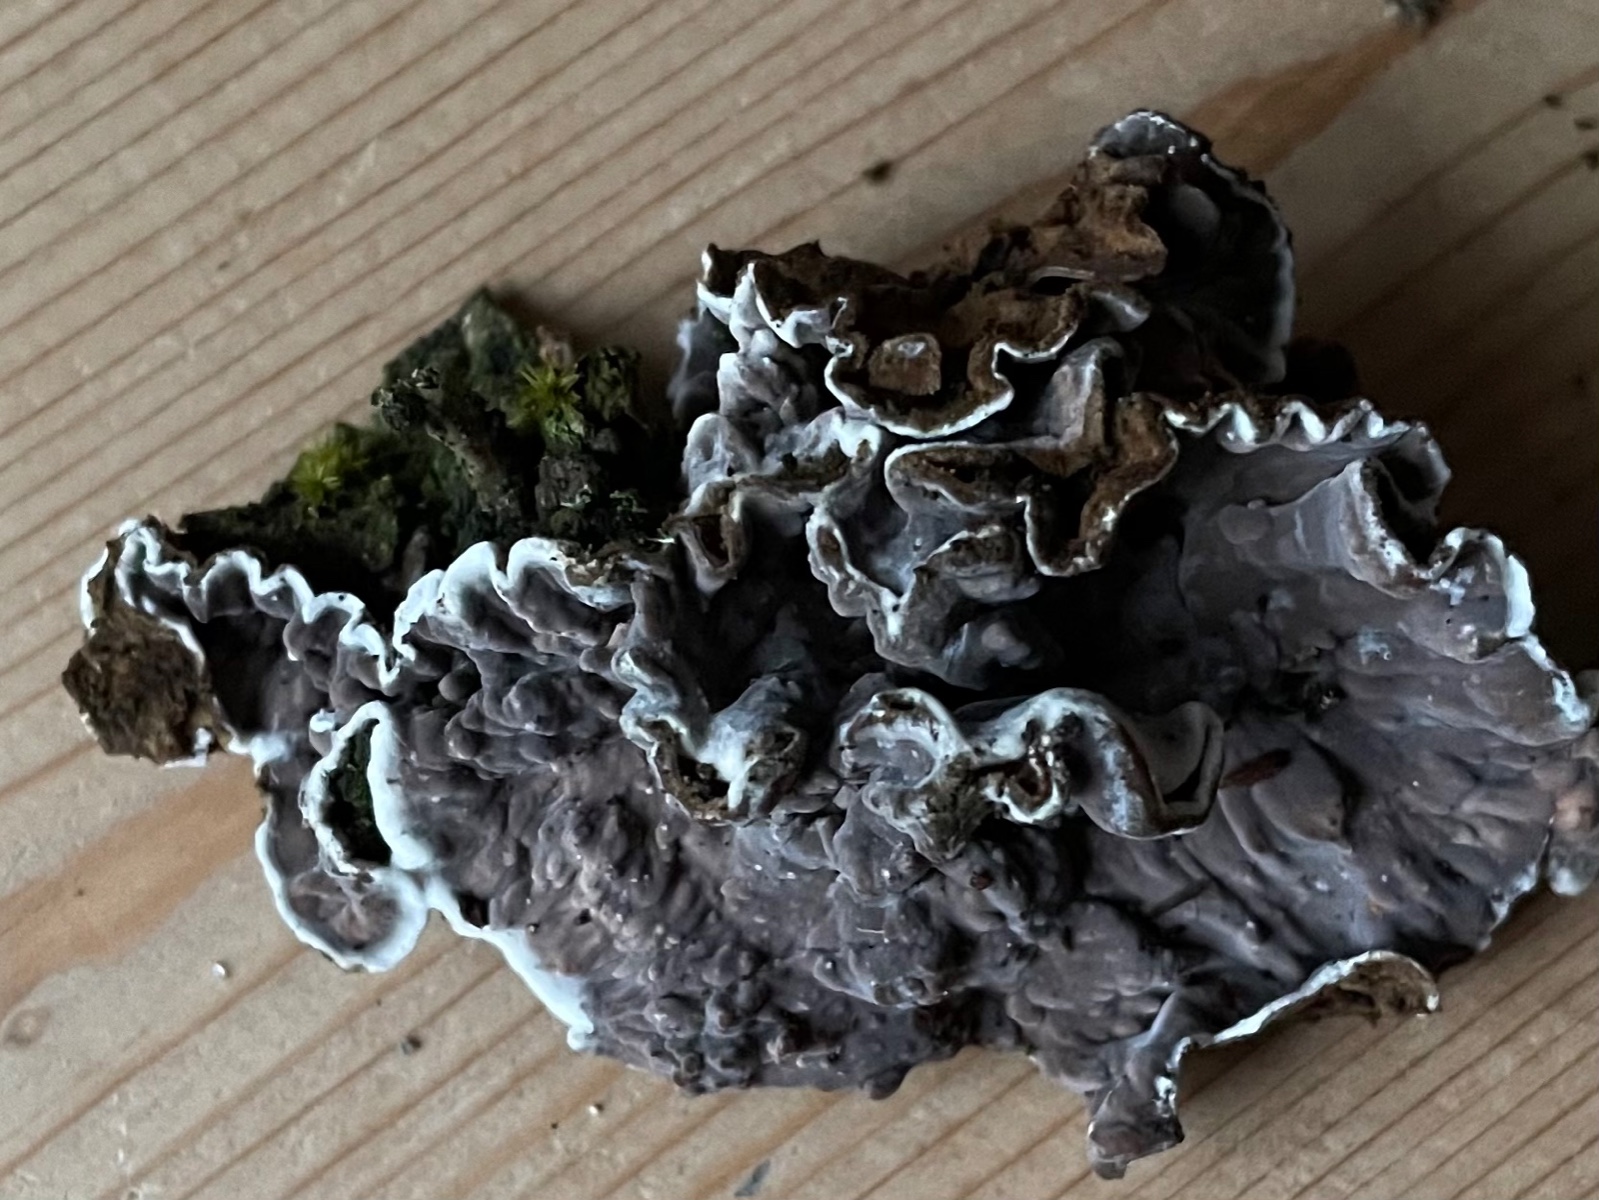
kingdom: Fungi
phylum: Basidiomycota
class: Agaricomycetes
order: Corticiales
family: Corticiaceae
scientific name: Corticiaceae
